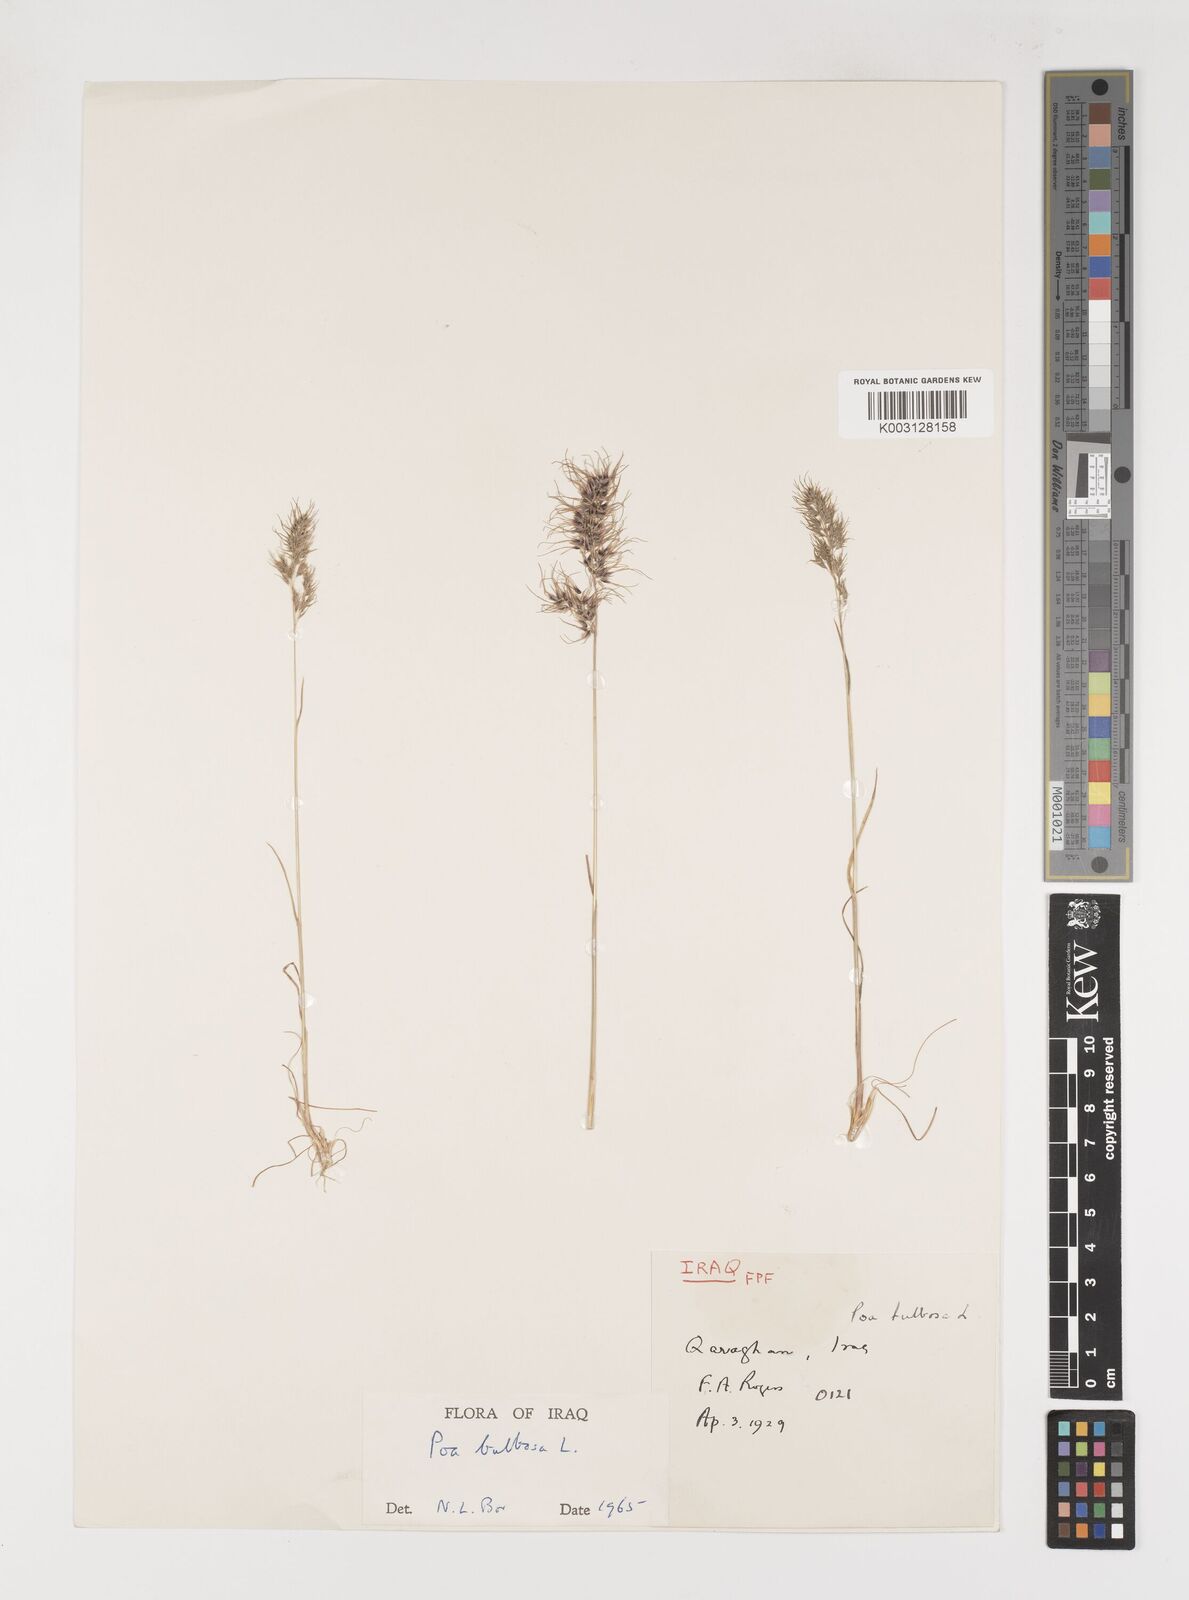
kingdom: Plantae
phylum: Tracheophyta
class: Liliopsida
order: Poales
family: Poaceae
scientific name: Poaceae
